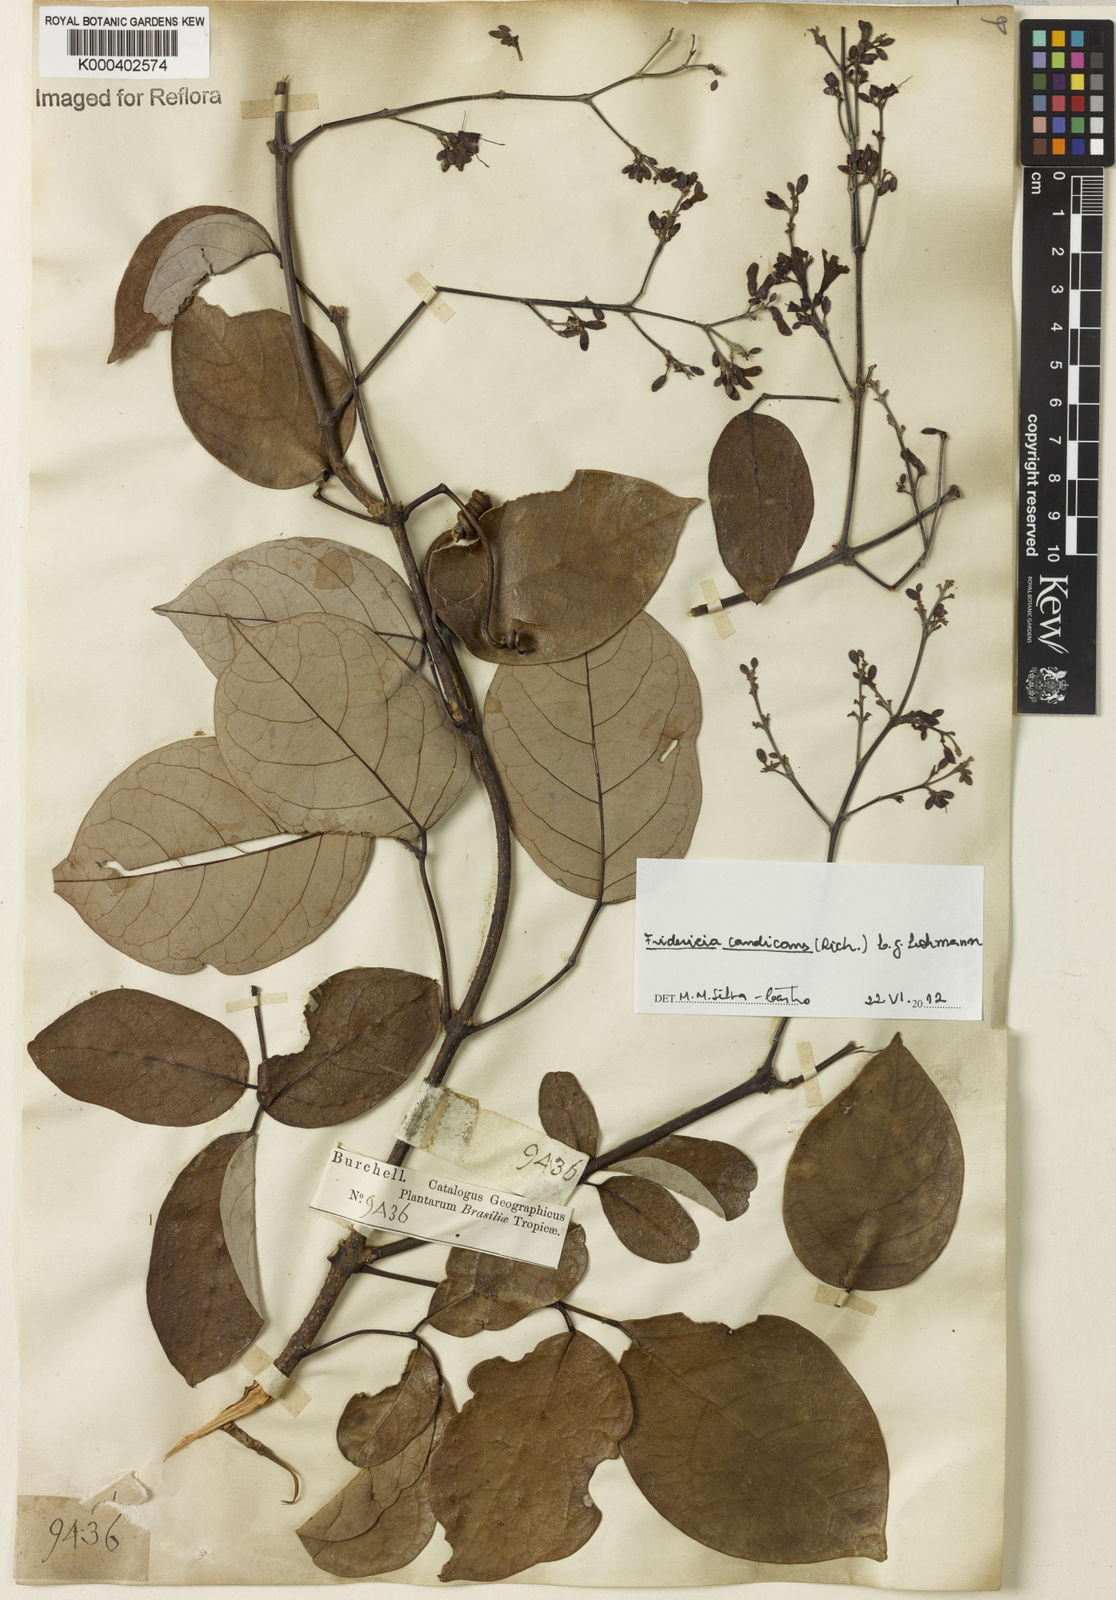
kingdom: Plantae
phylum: Tracheophyta
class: Magnoliopsida
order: Lamiales
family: Bignoniaceae
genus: Fridericia
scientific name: Fridericia
